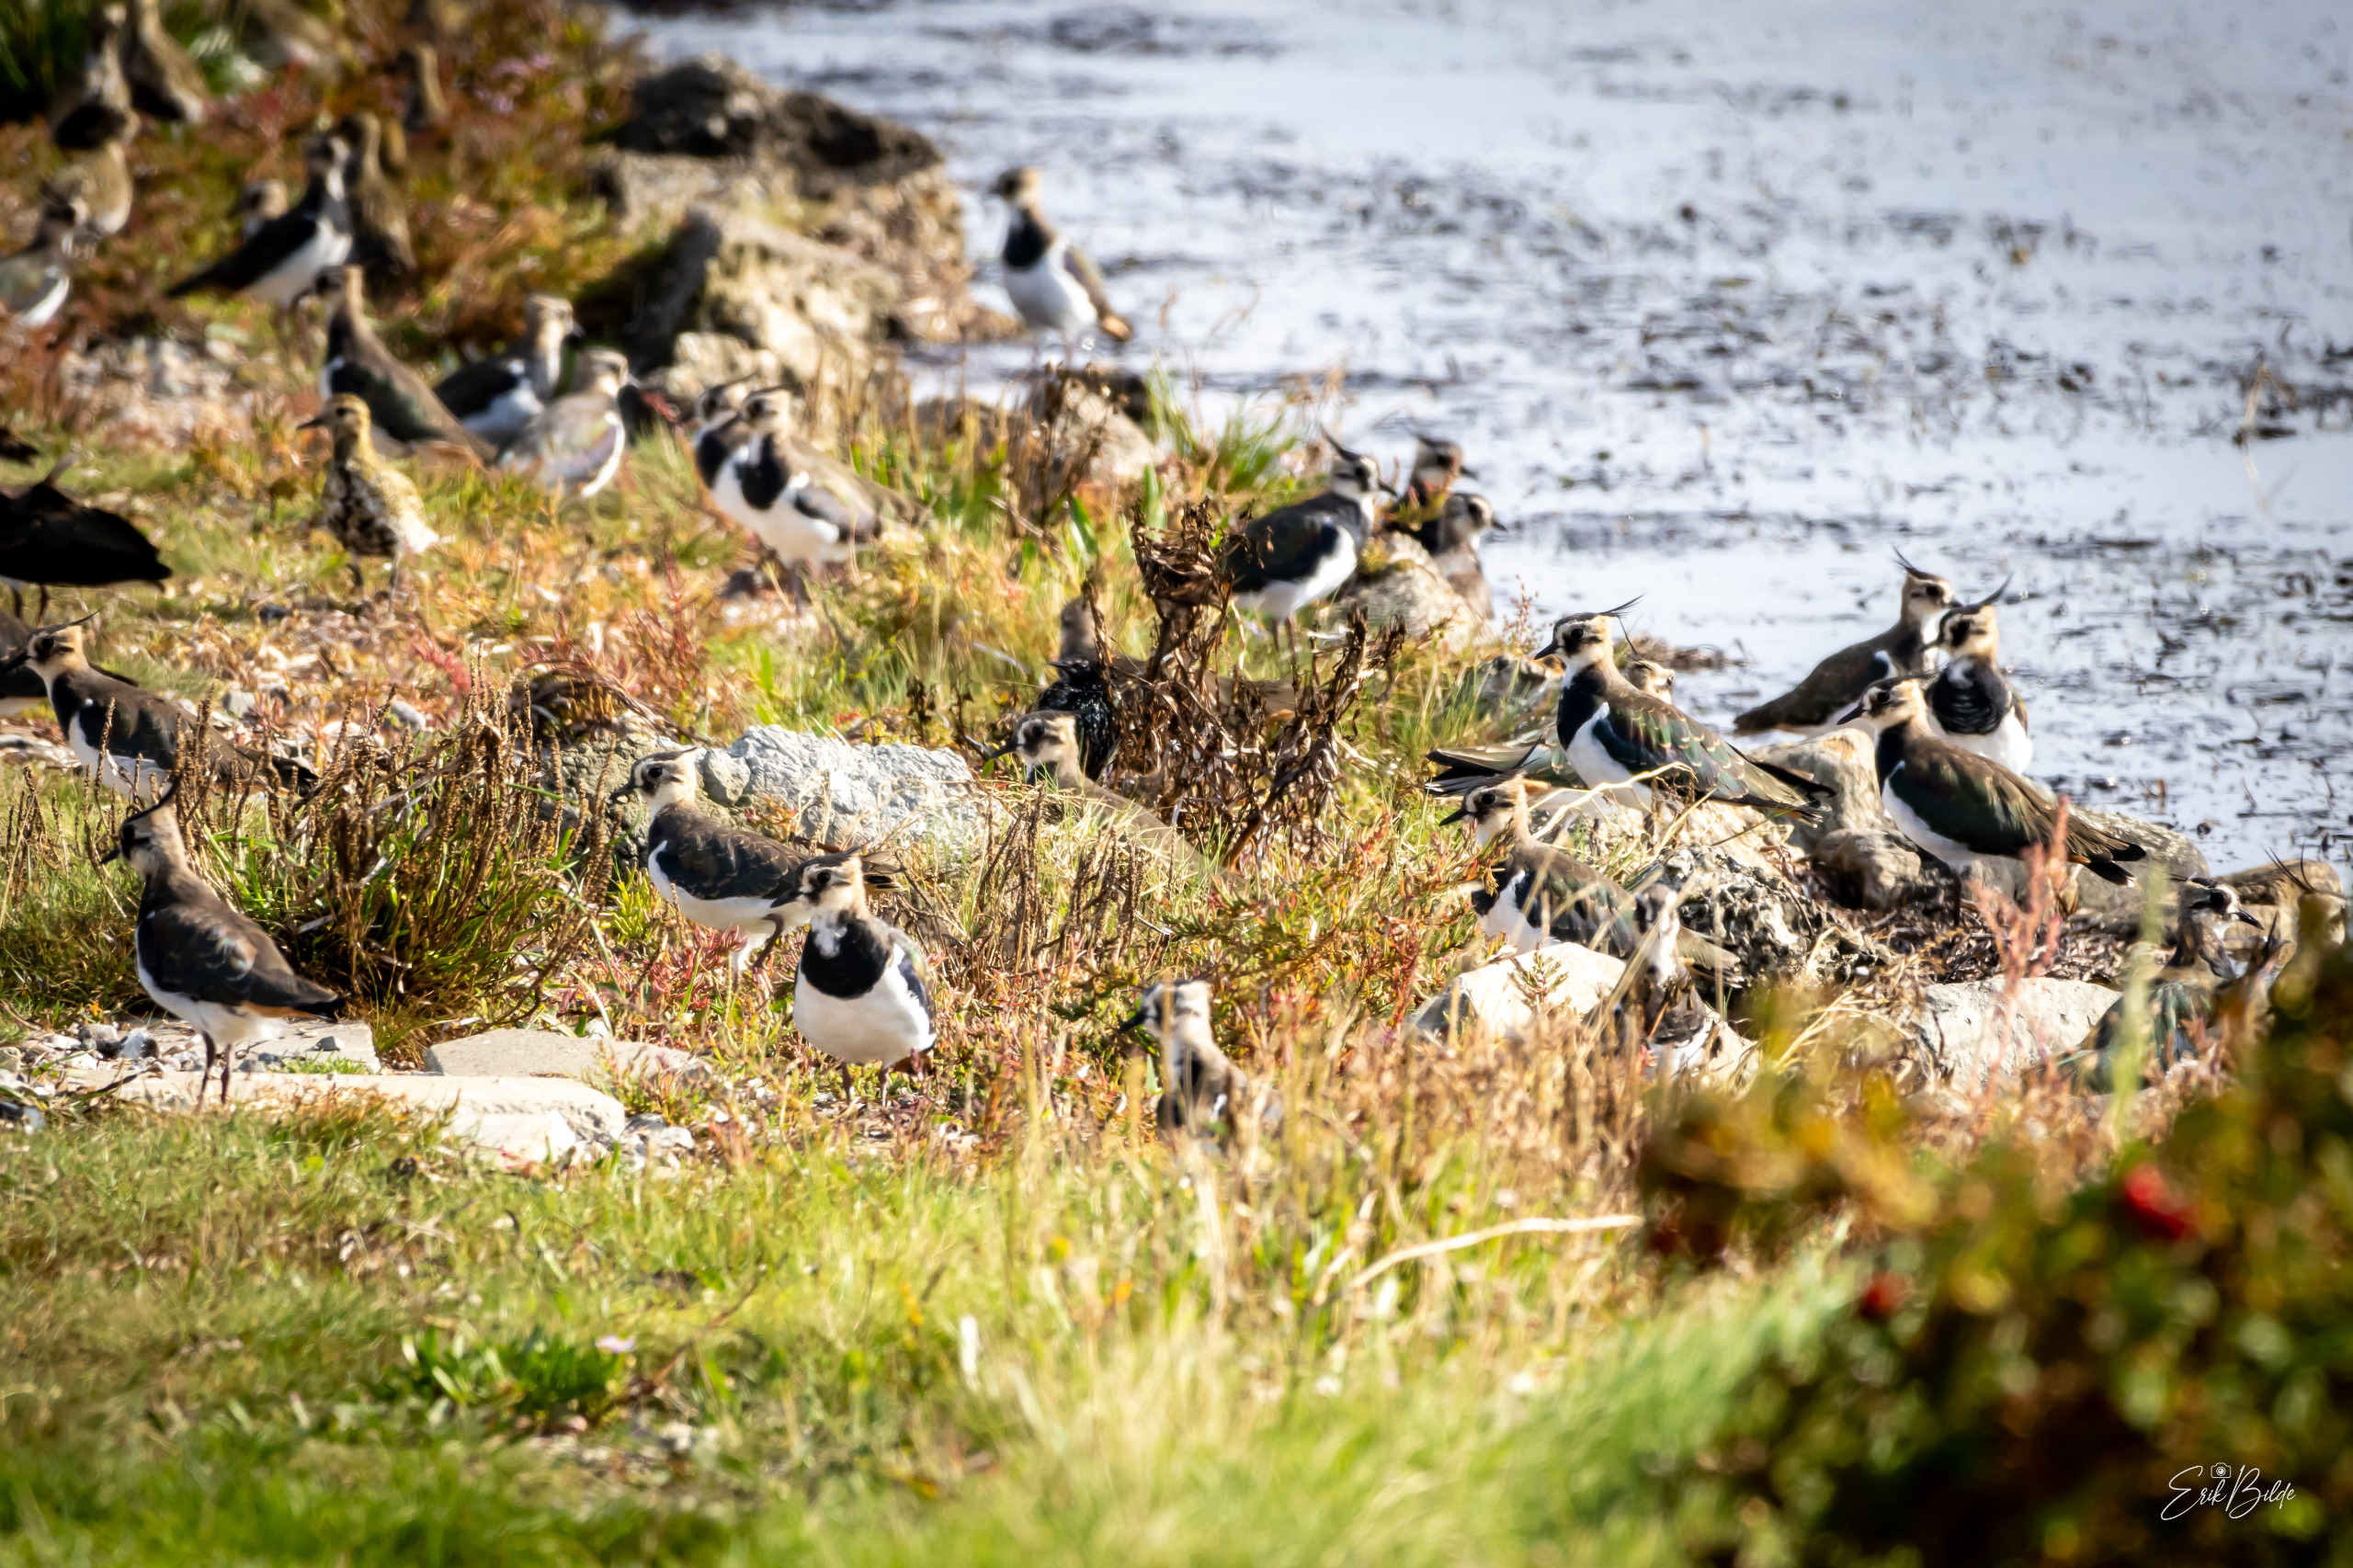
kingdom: Animalia
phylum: Chordata
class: Aves
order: Charadriiformes
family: Charadriidae
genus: Vanellus
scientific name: Vanellus vanellus
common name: Vibe
